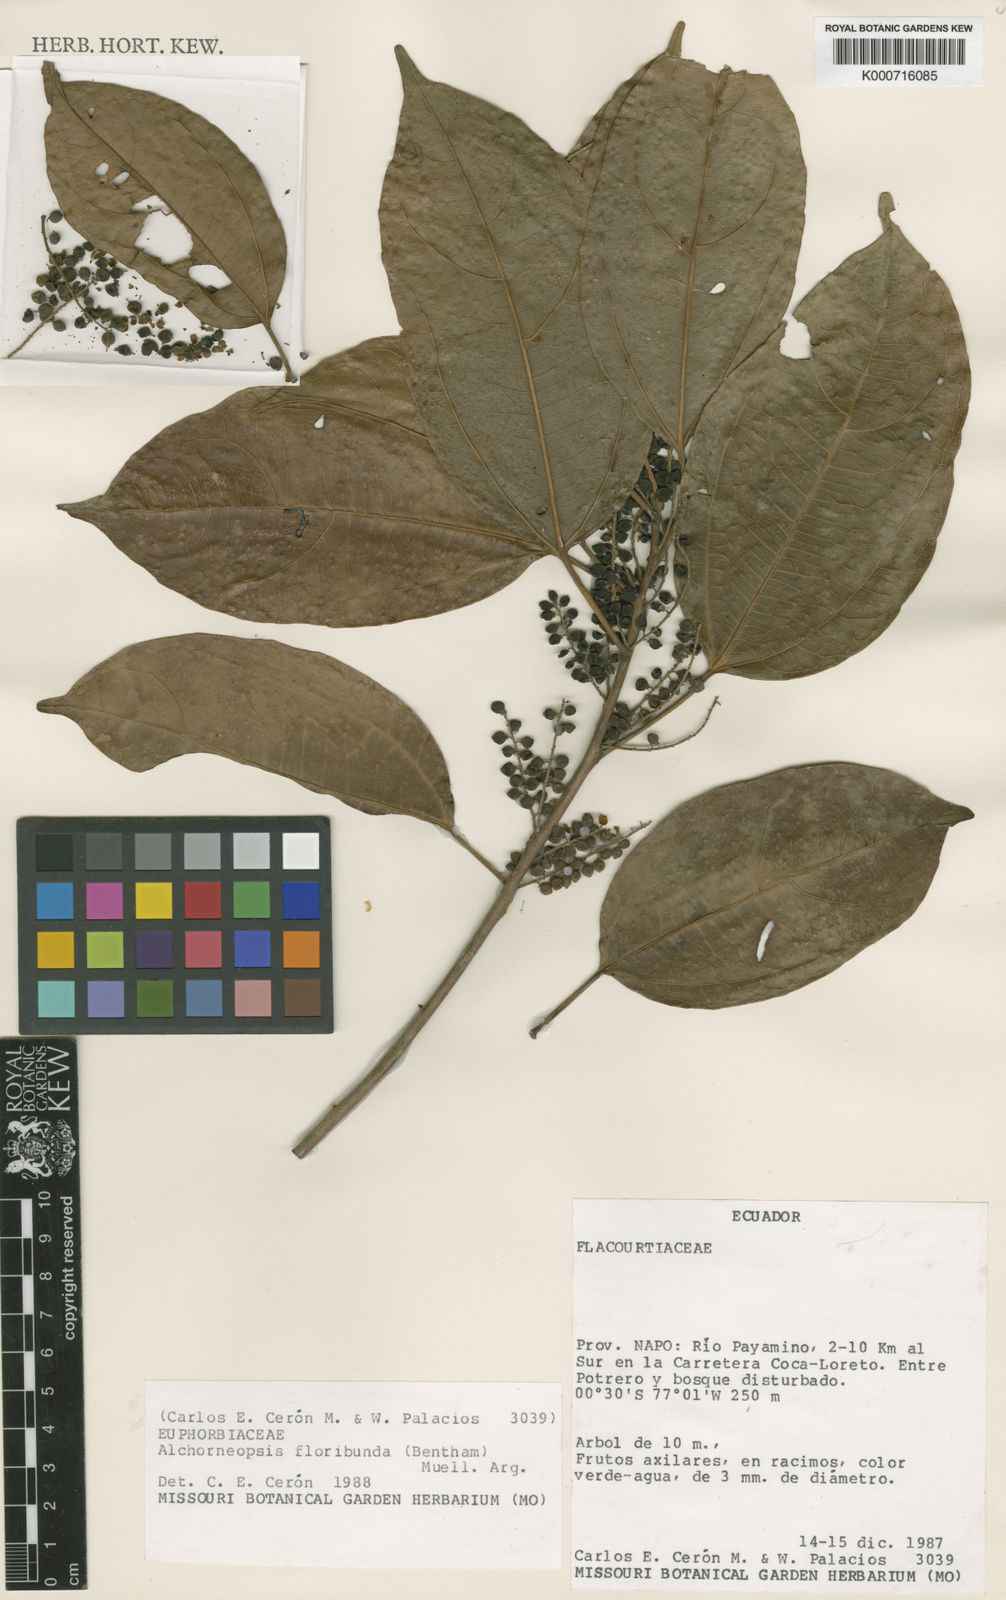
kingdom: Plantae
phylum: Tracheophyta
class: Magnoliopsida
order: Malpighiales
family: Euphorbiaceae
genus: Alchorneopsis
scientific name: Alchorneopsis
